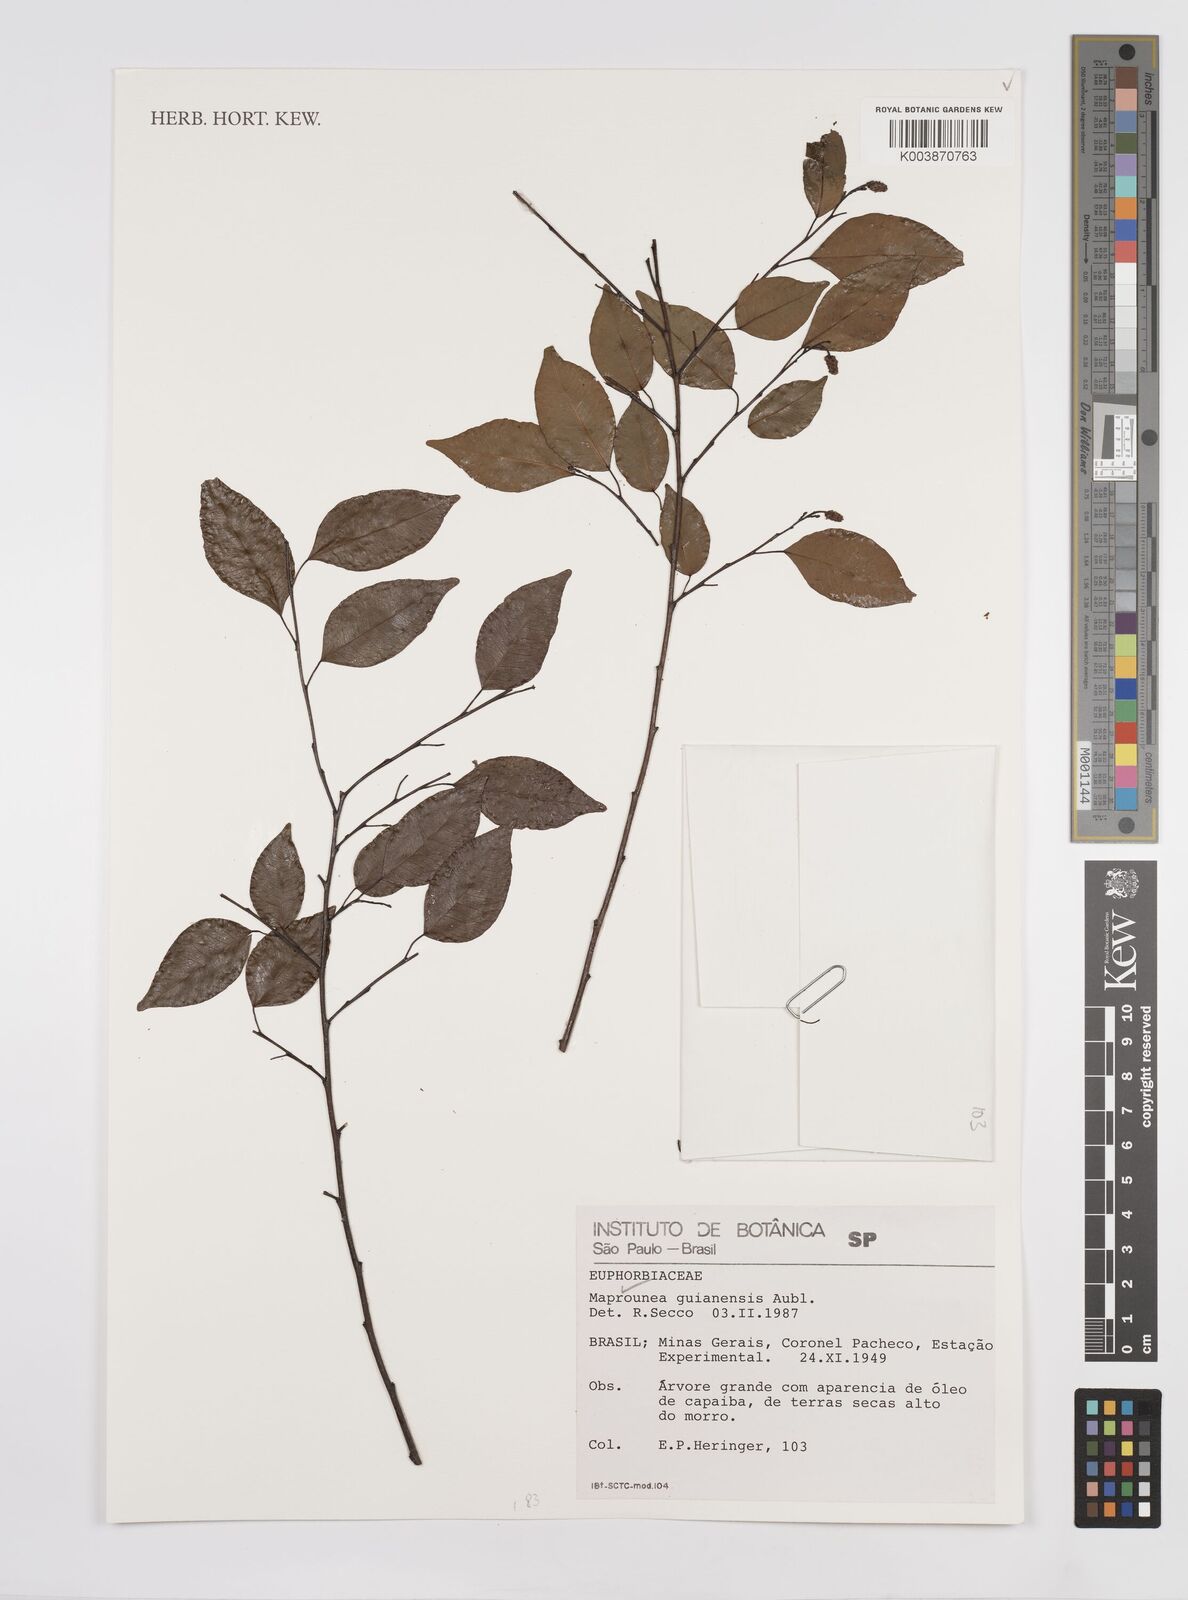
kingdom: Plantae
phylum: Tracheophyta
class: Magnoliopsida
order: Malpighiales
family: Euphorbiaceae
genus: Maprounea
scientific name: Maprounea guianensis
